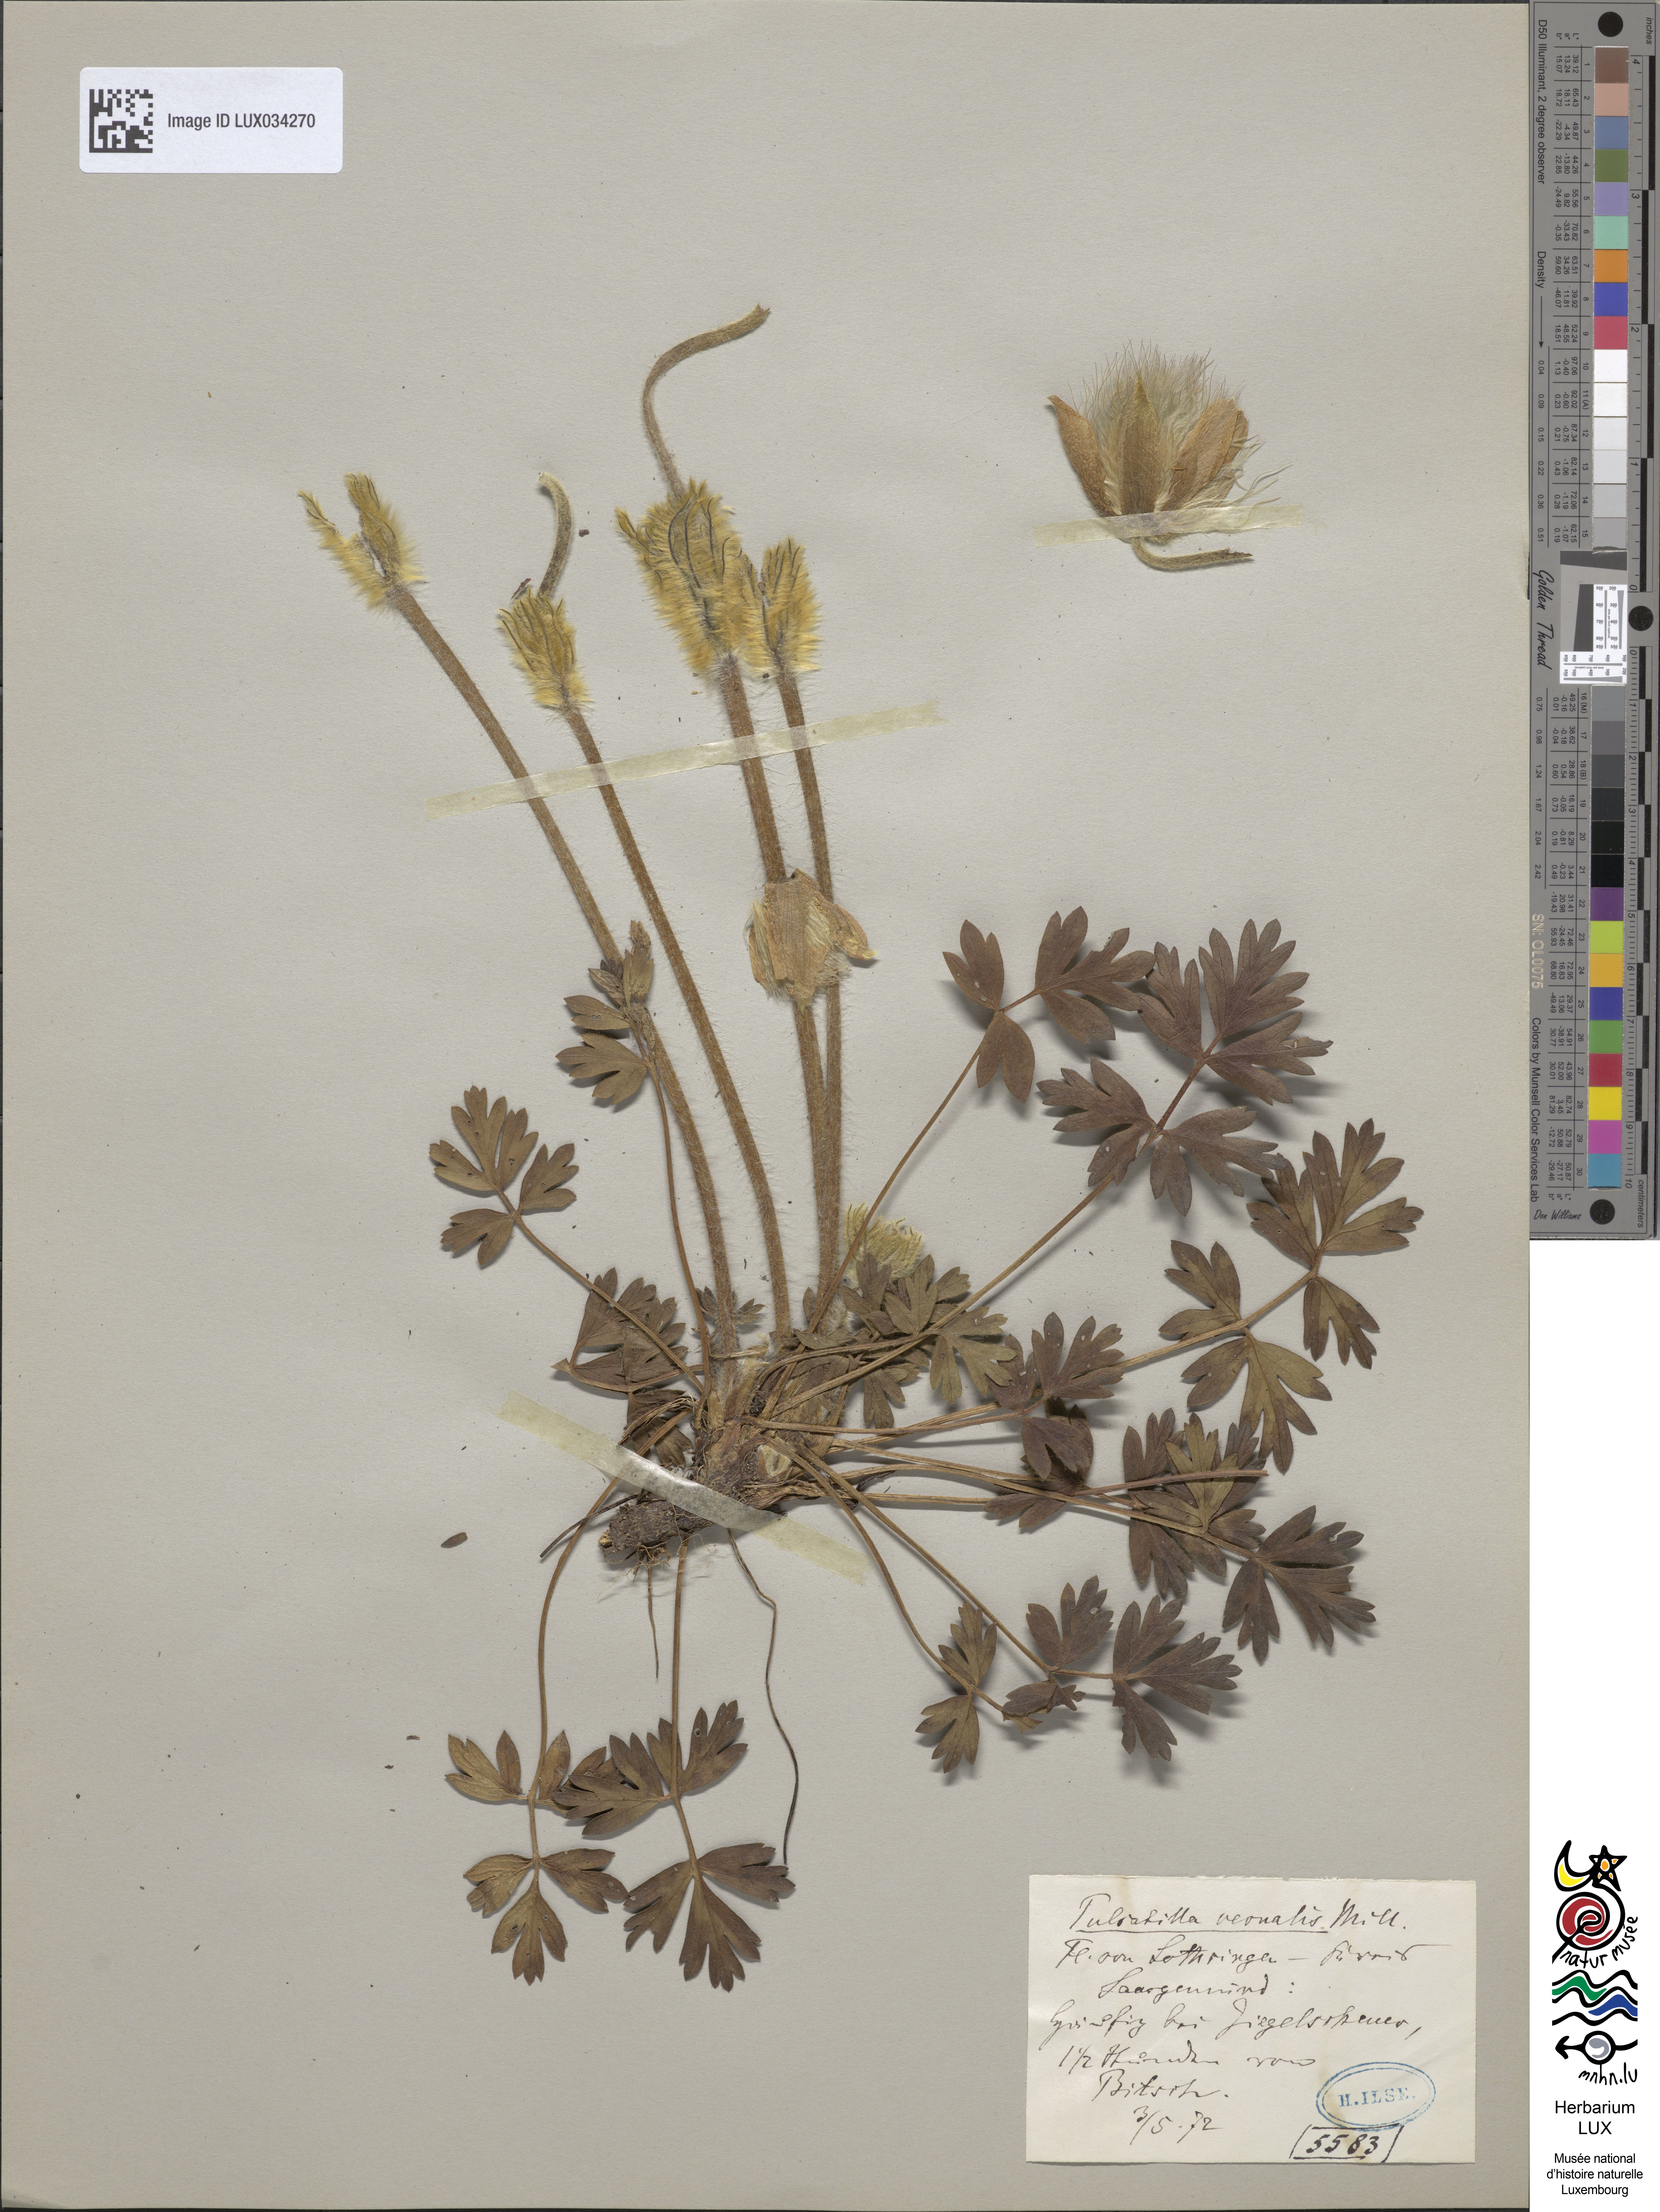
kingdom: Plantae
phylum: Tracheophyta
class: Magnoliopsida
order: Ranunculales
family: Ranunculaceae
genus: Pulsatilla
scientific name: Pulsatilla vernalis
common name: Spring pasque flower
